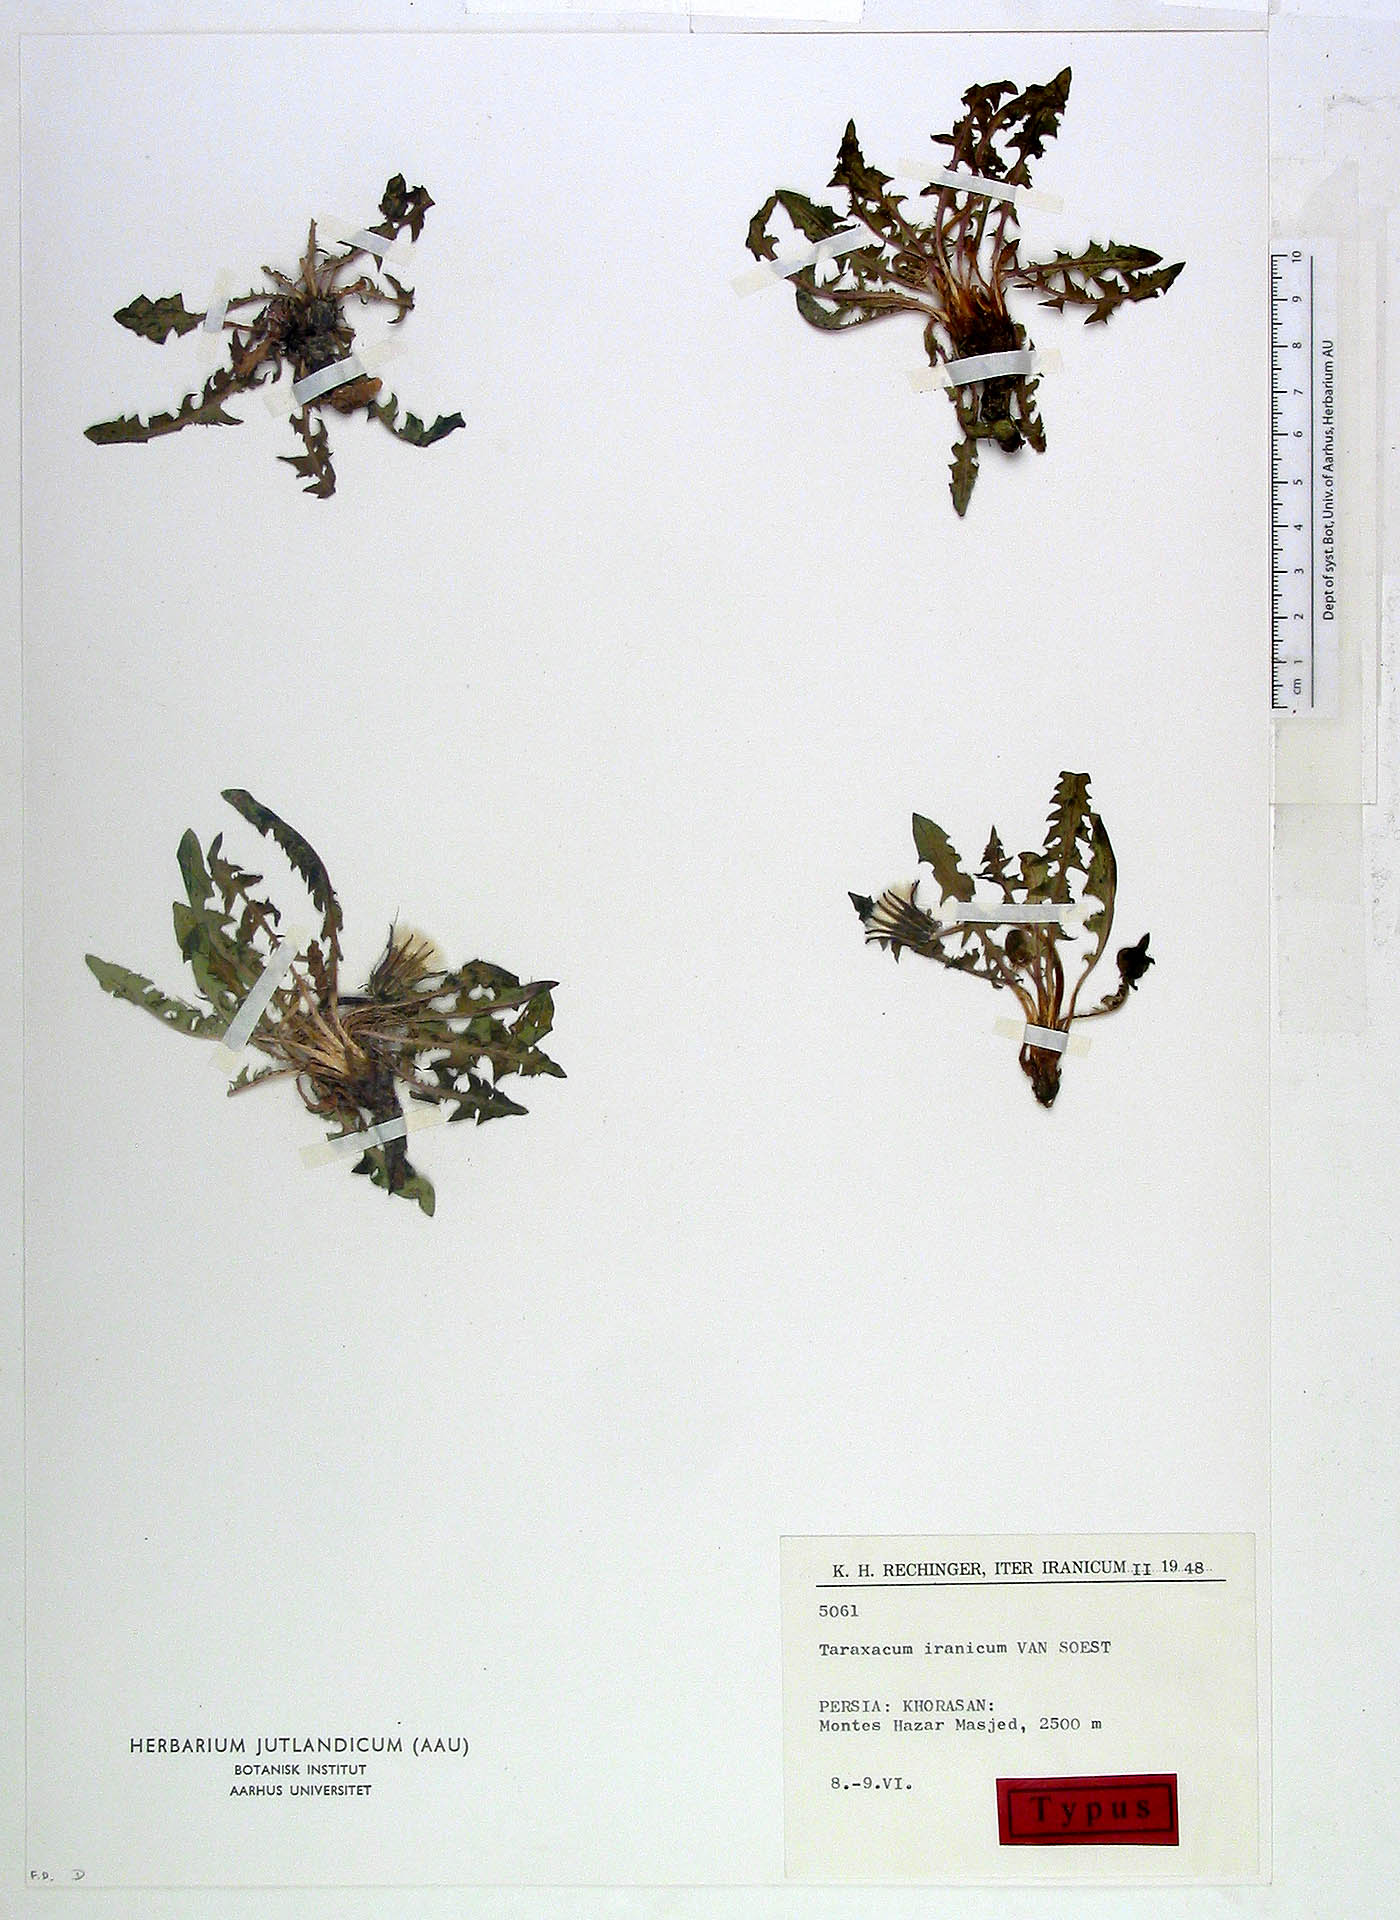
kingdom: Plantae
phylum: Tracheophyta
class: Magnoliopsida
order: Asterales
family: Asteraceae
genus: Taraxacum
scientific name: Taraxacum iranicum
